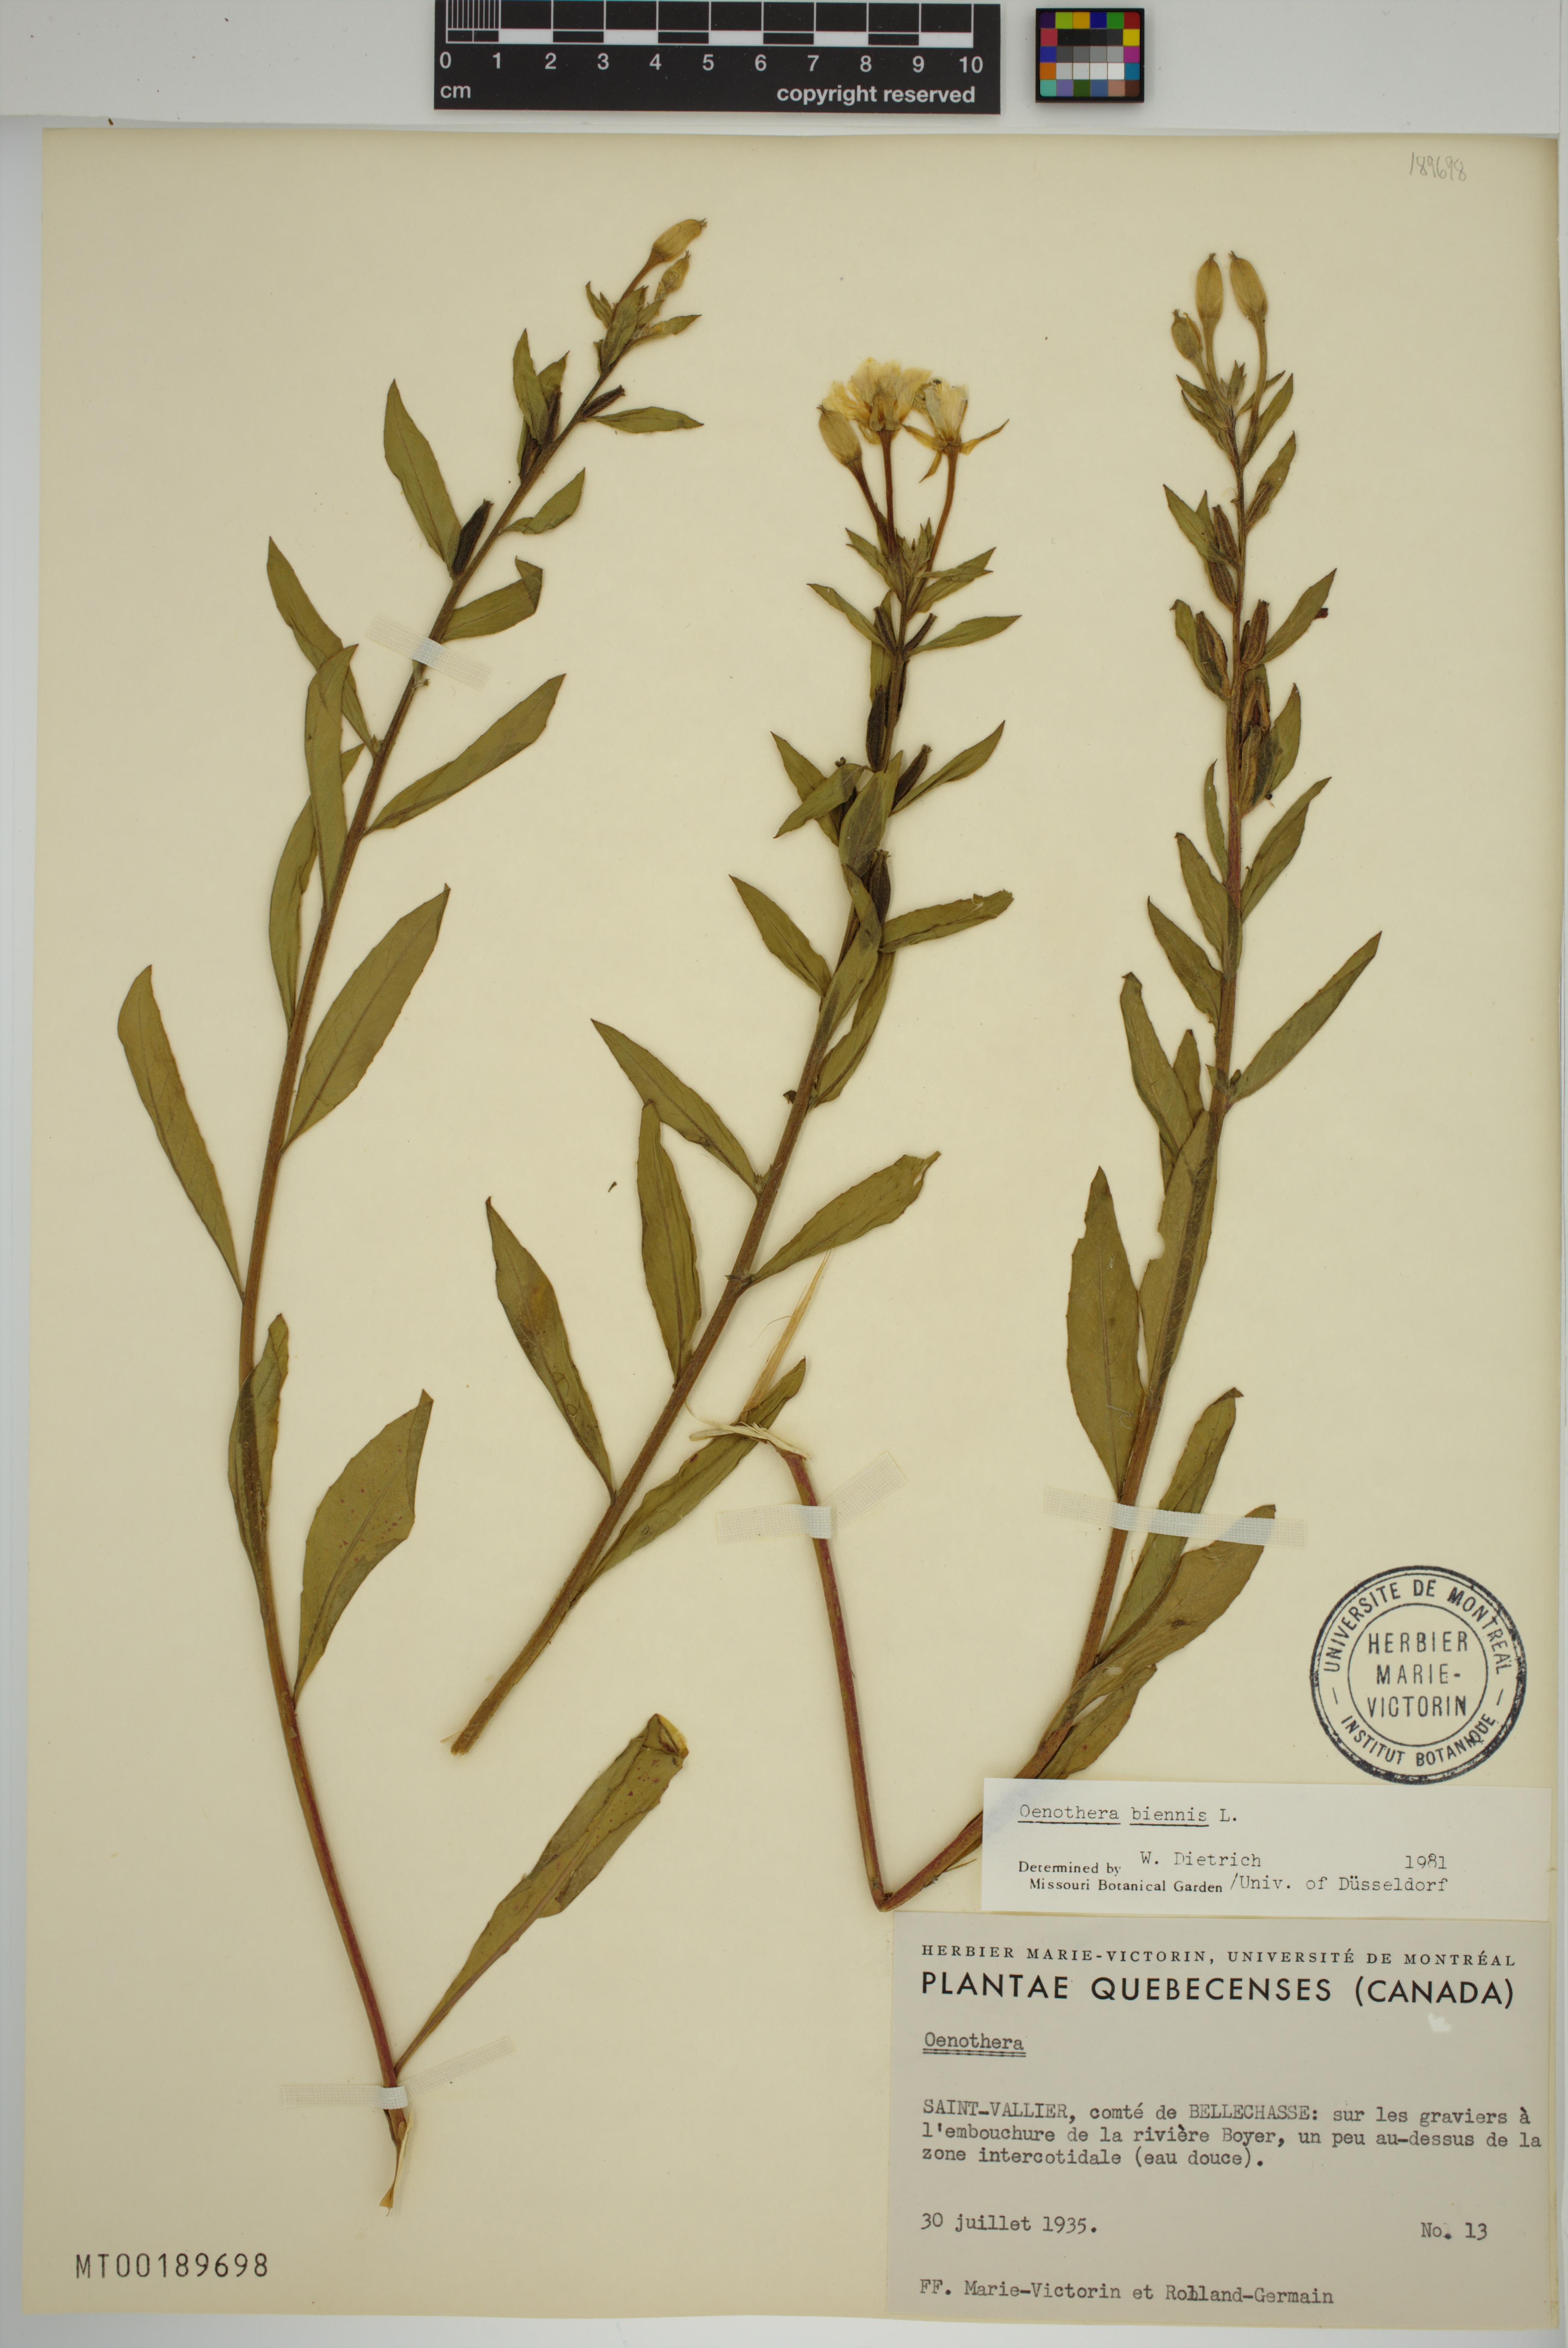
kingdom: Plantae
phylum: Tracheophyta
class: Magnoliopsida
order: Myrtales
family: Onagraceae
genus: Oenothera
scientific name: Oenothera biennis
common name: Common evening-primrose
